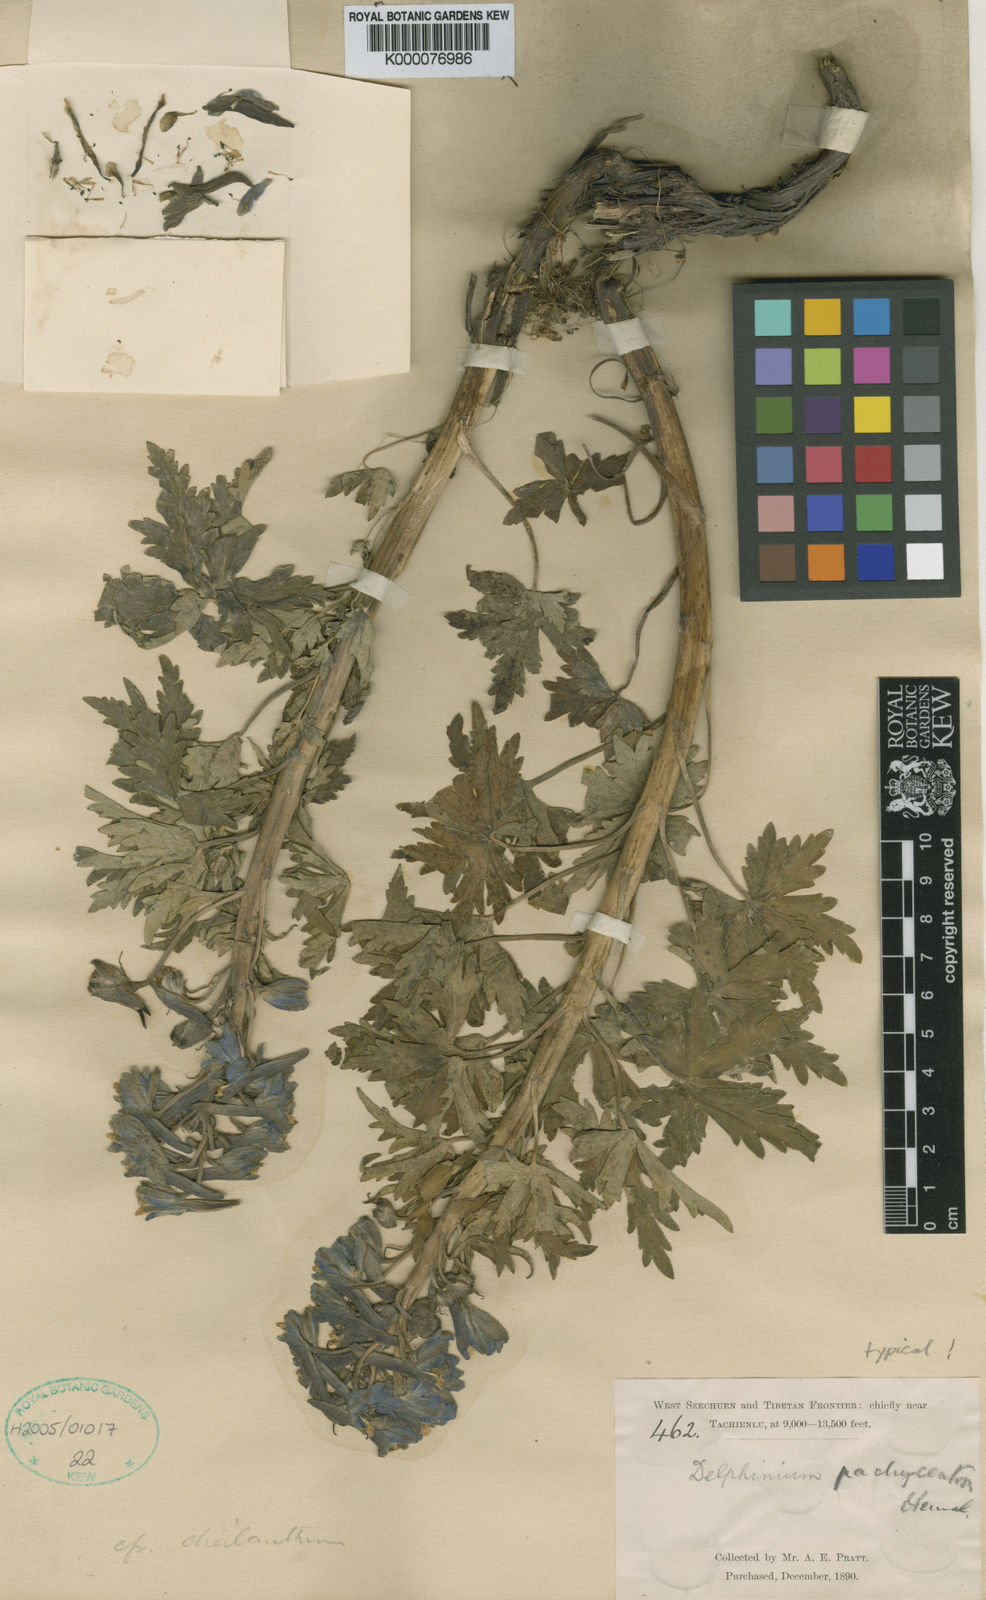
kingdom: Plantae
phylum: Tracheophyta
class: Magnoliopsida
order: Ranunculales
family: Ranunculaceae
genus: Delphinium
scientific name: Delphinium
